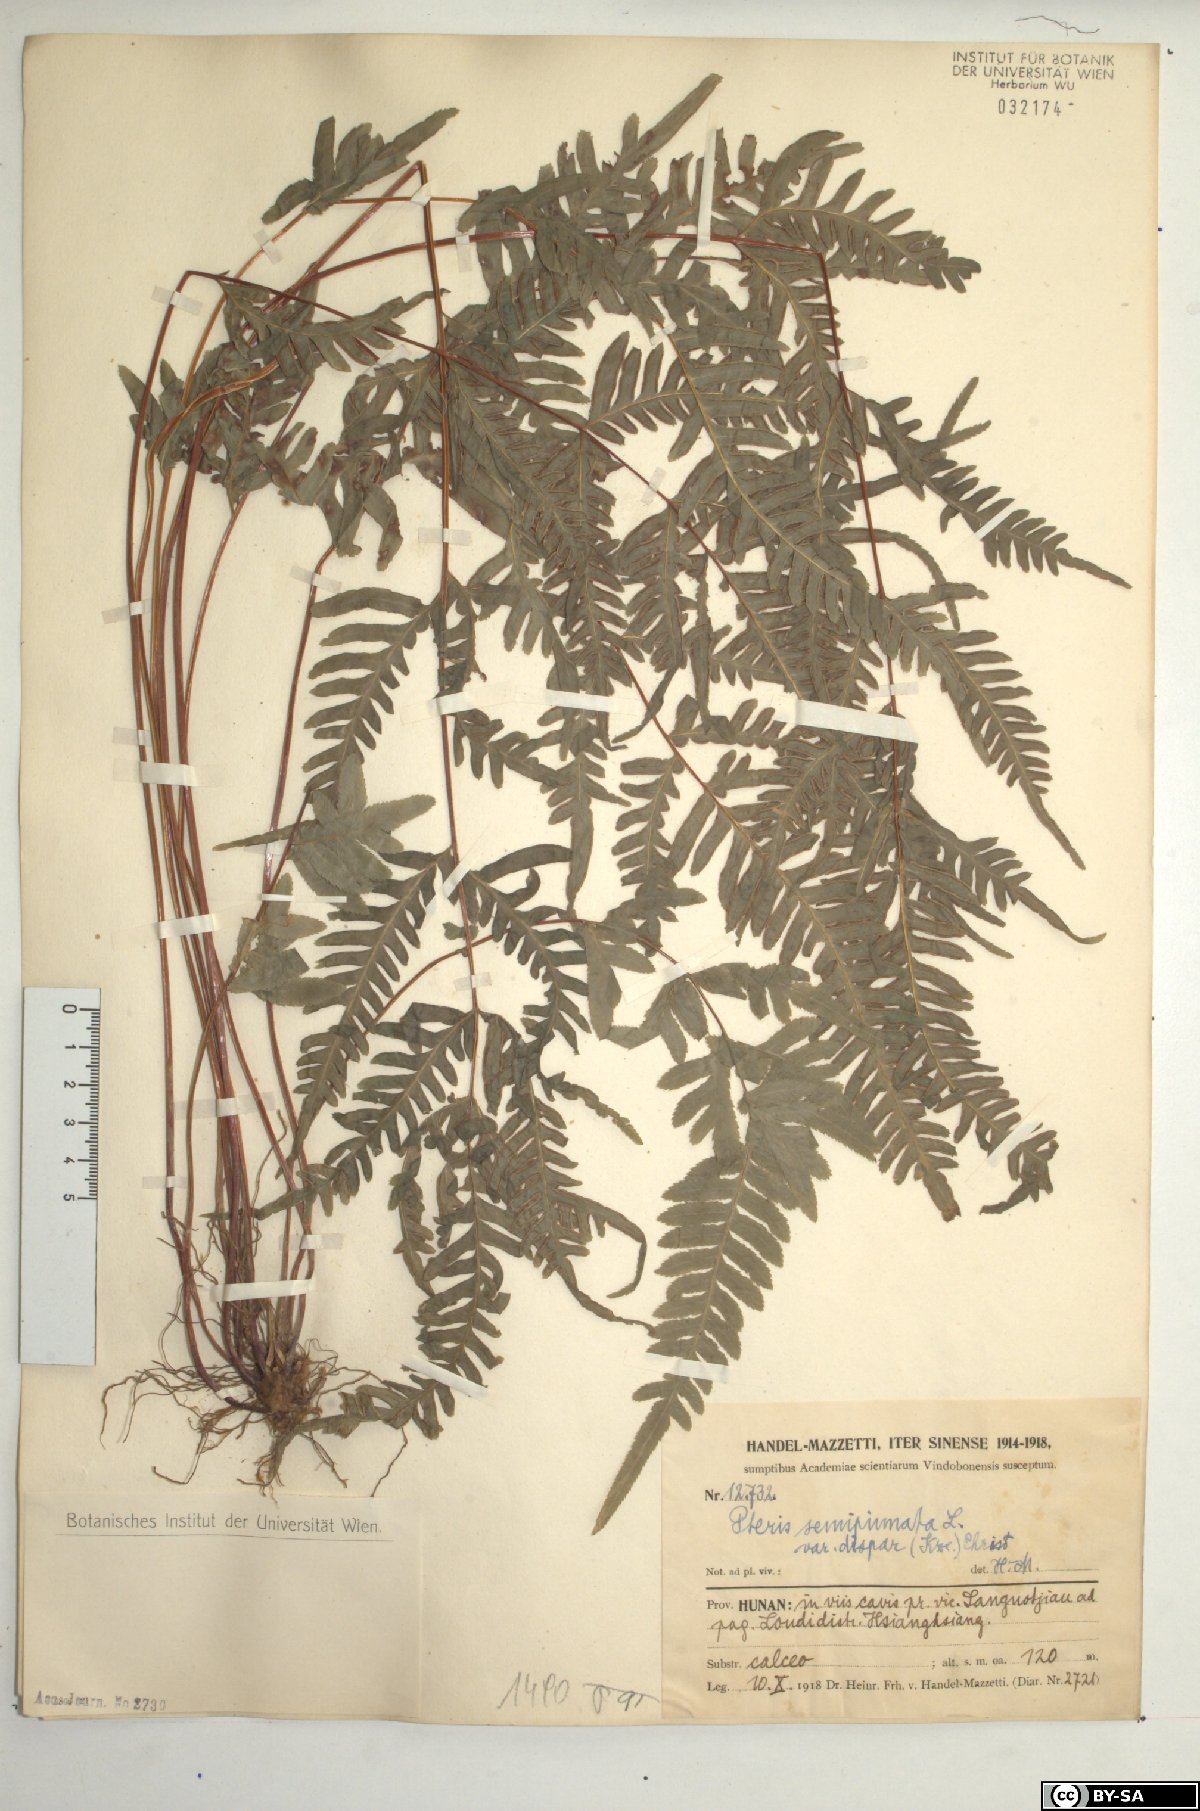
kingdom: Plantae
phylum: Tracheophyta
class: Polypodiopsida
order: Polypodiales
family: Pteridaceae
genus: Pteris
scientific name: Pteris dispar
